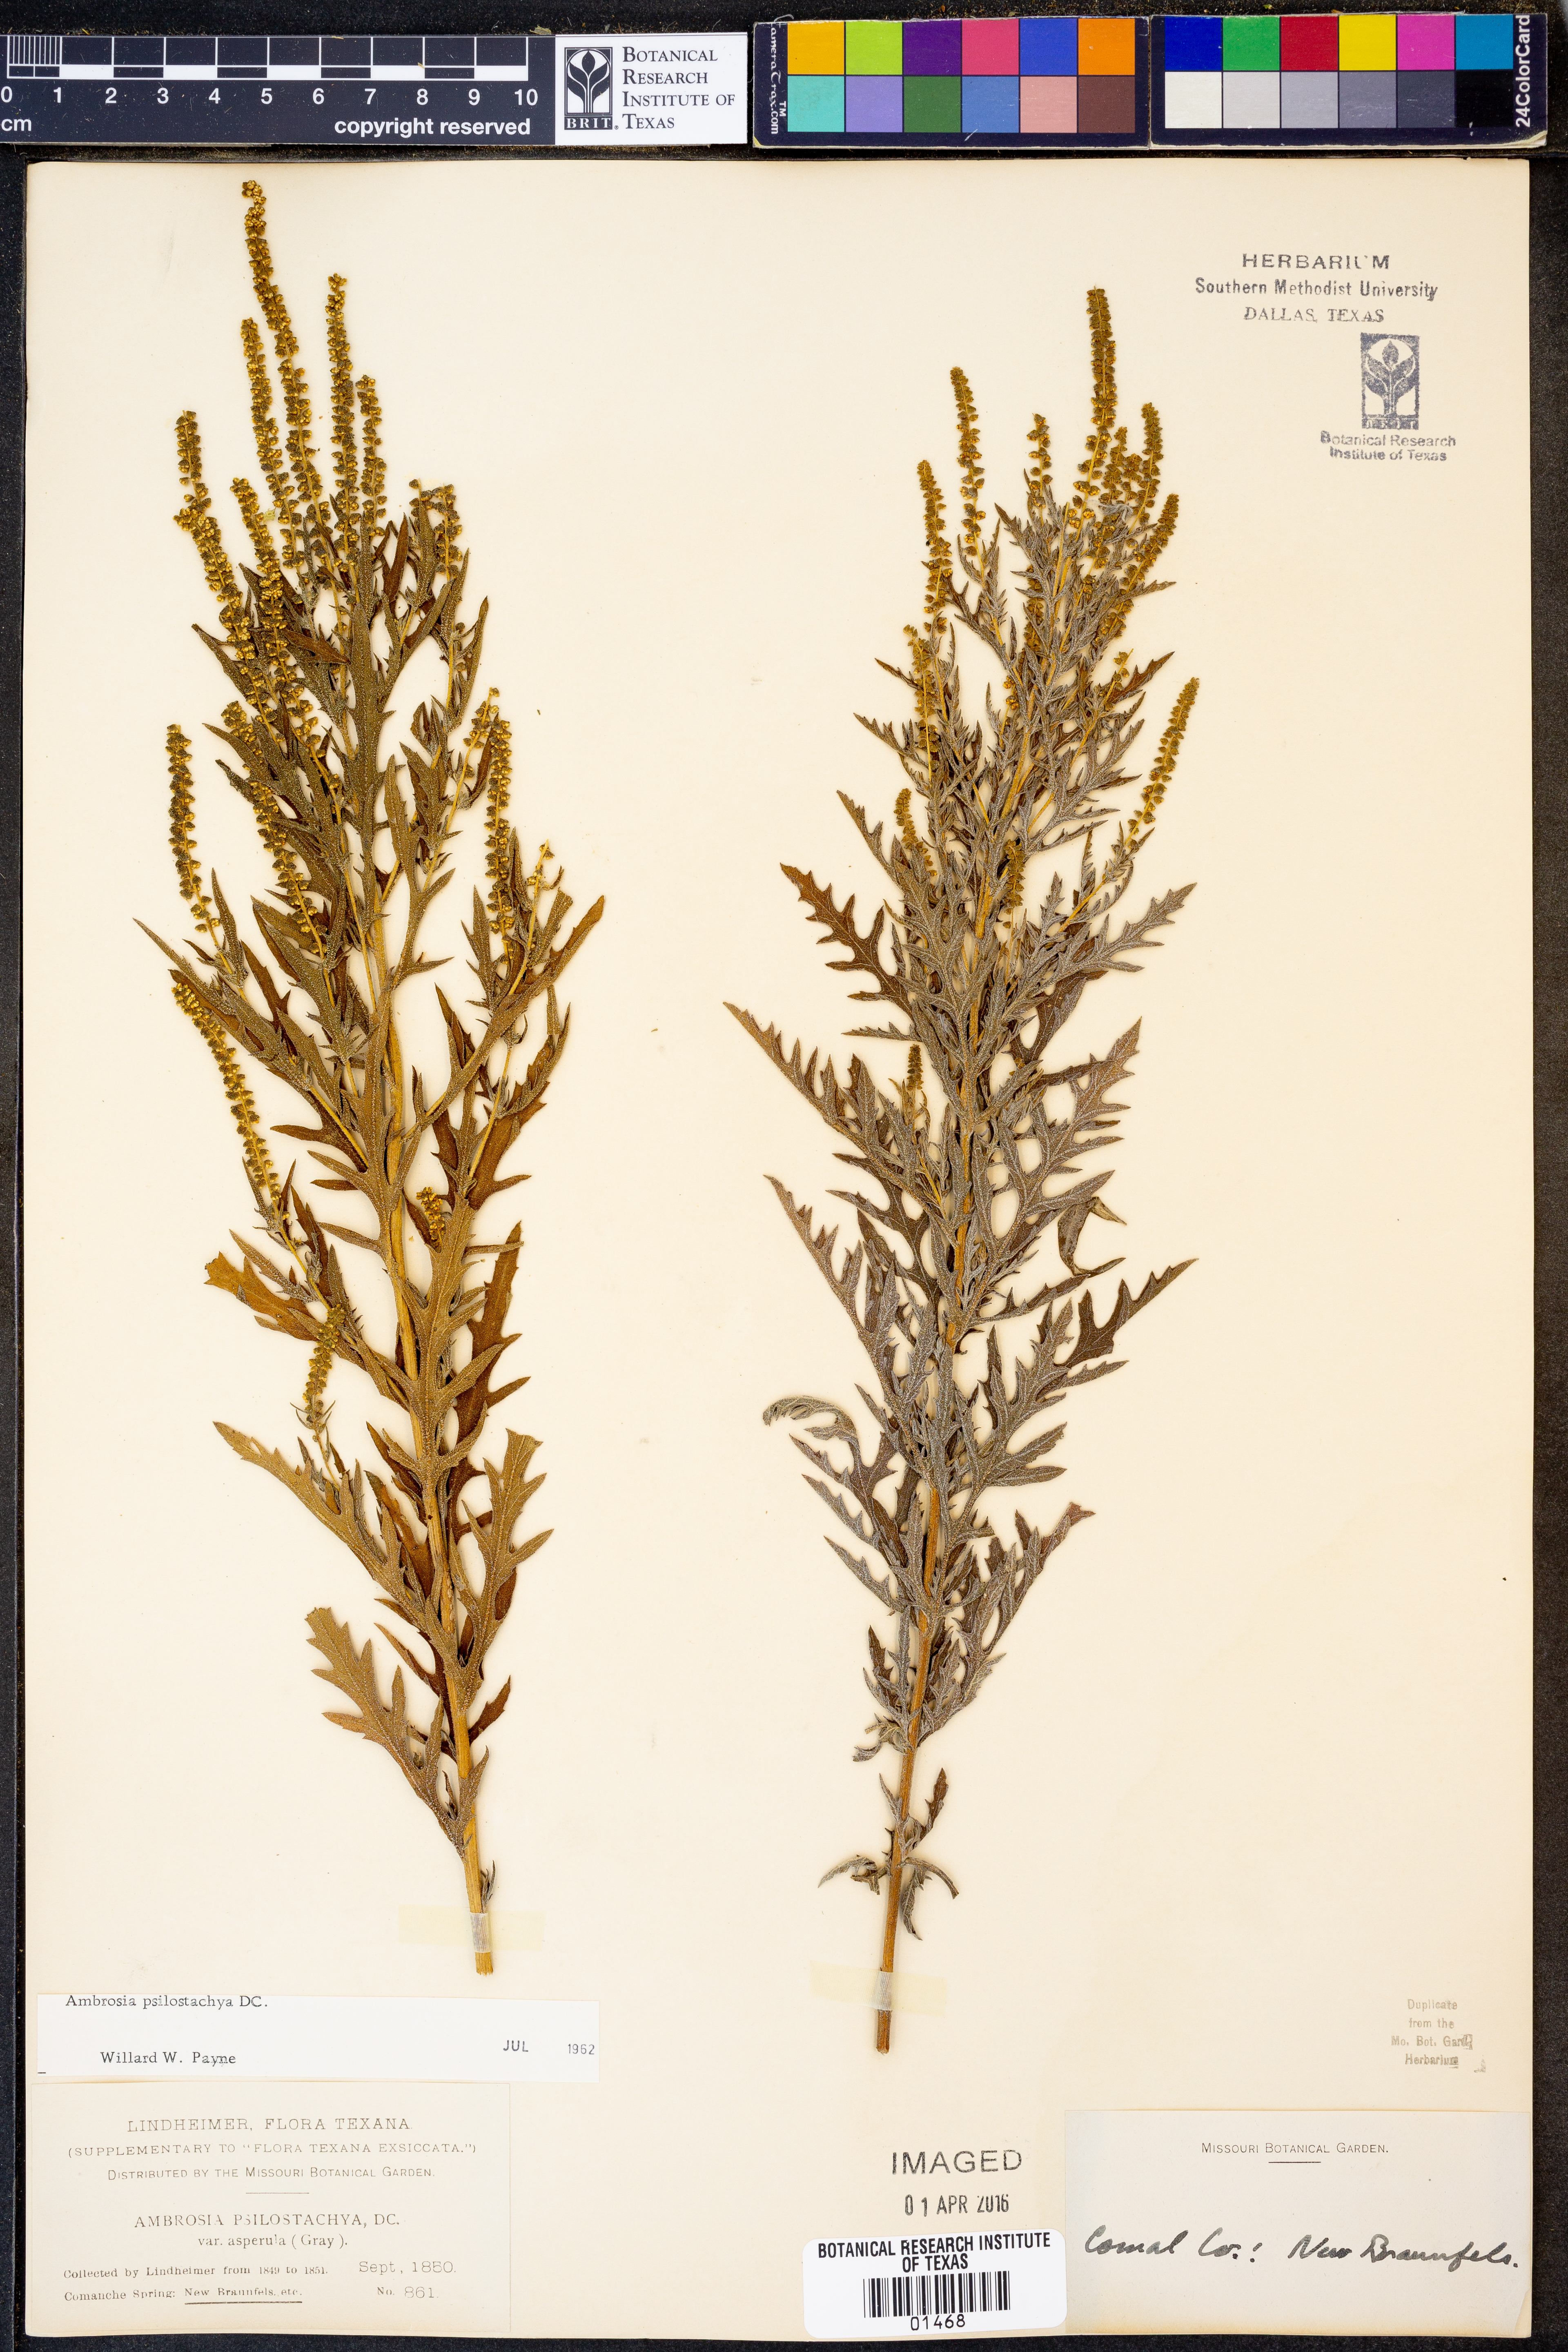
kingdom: Plantae
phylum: Tracheophyta
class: Magnoliopsida
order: Asterales
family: Asteraceae
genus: Ambrosia
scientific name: Ambrosia psilostachya
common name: Perennial ragweed
